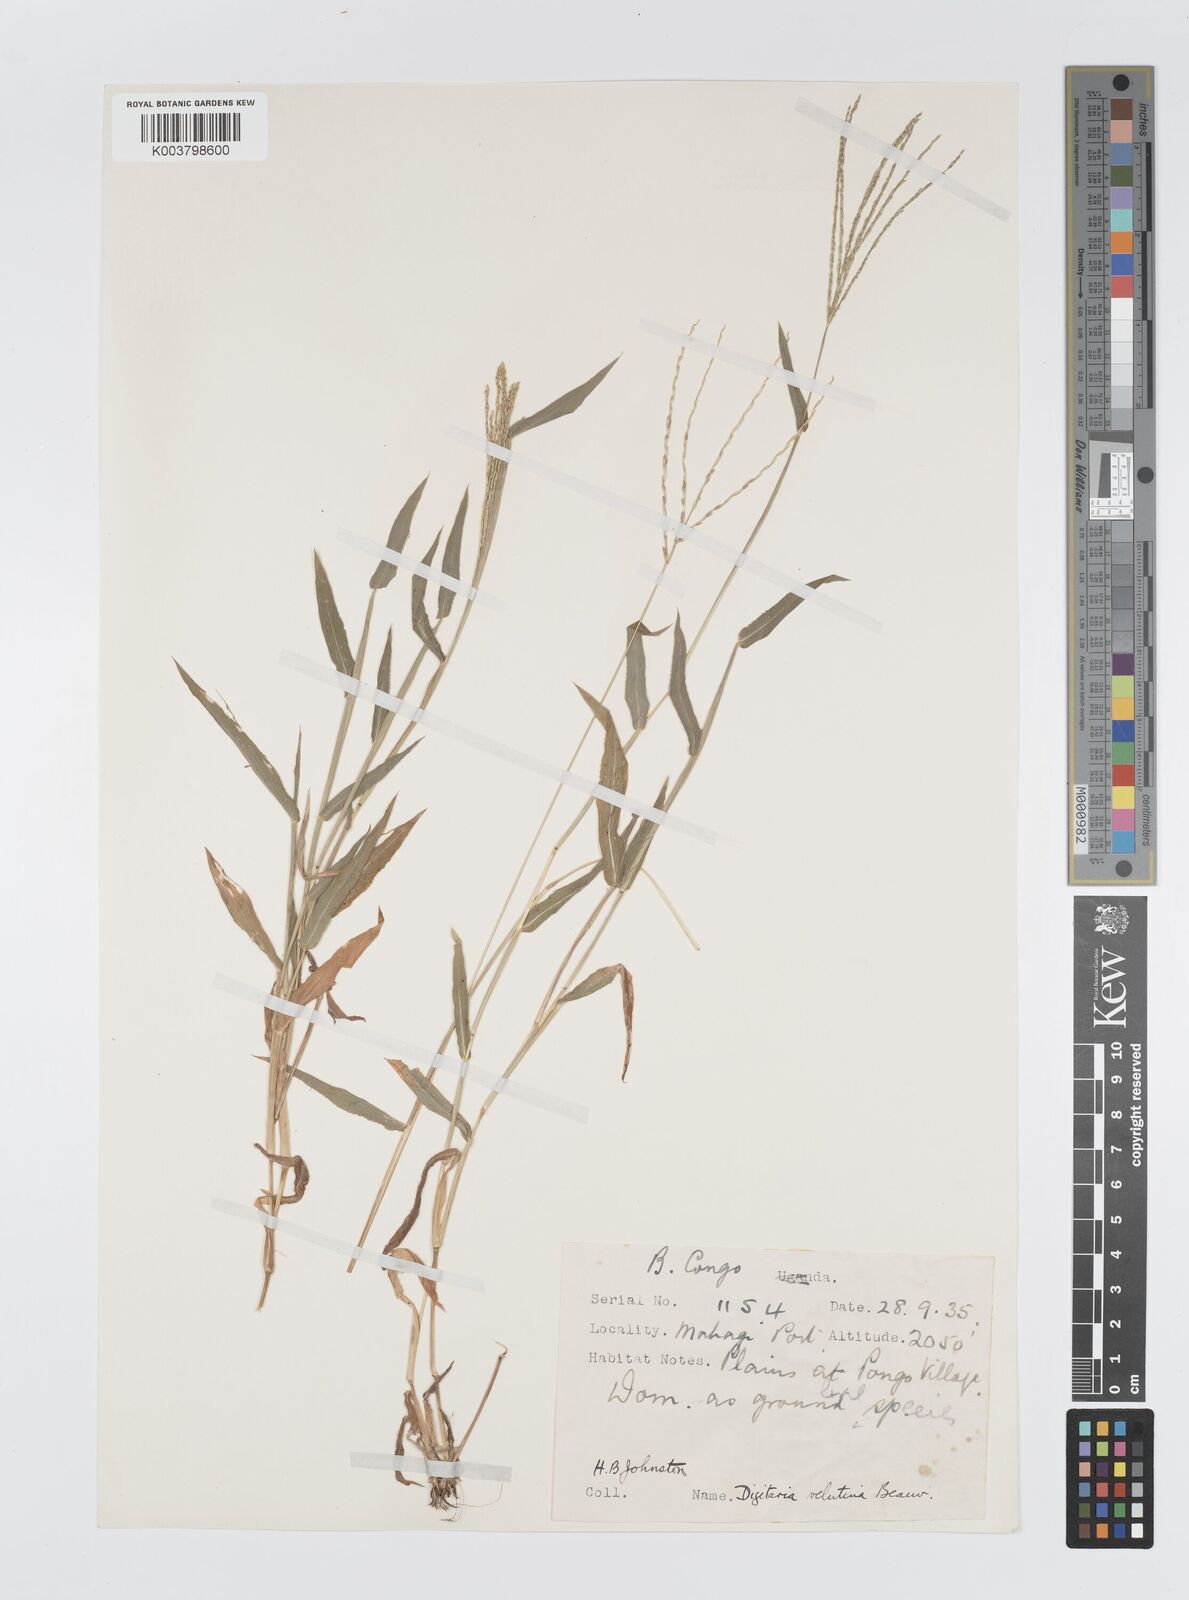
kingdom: Plantae
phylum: Tracheophyta
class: Liliopsida
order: Poales
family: Poaceae
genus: Digitaria
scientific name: Digitaria velutina
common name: Long-plume finger grass
